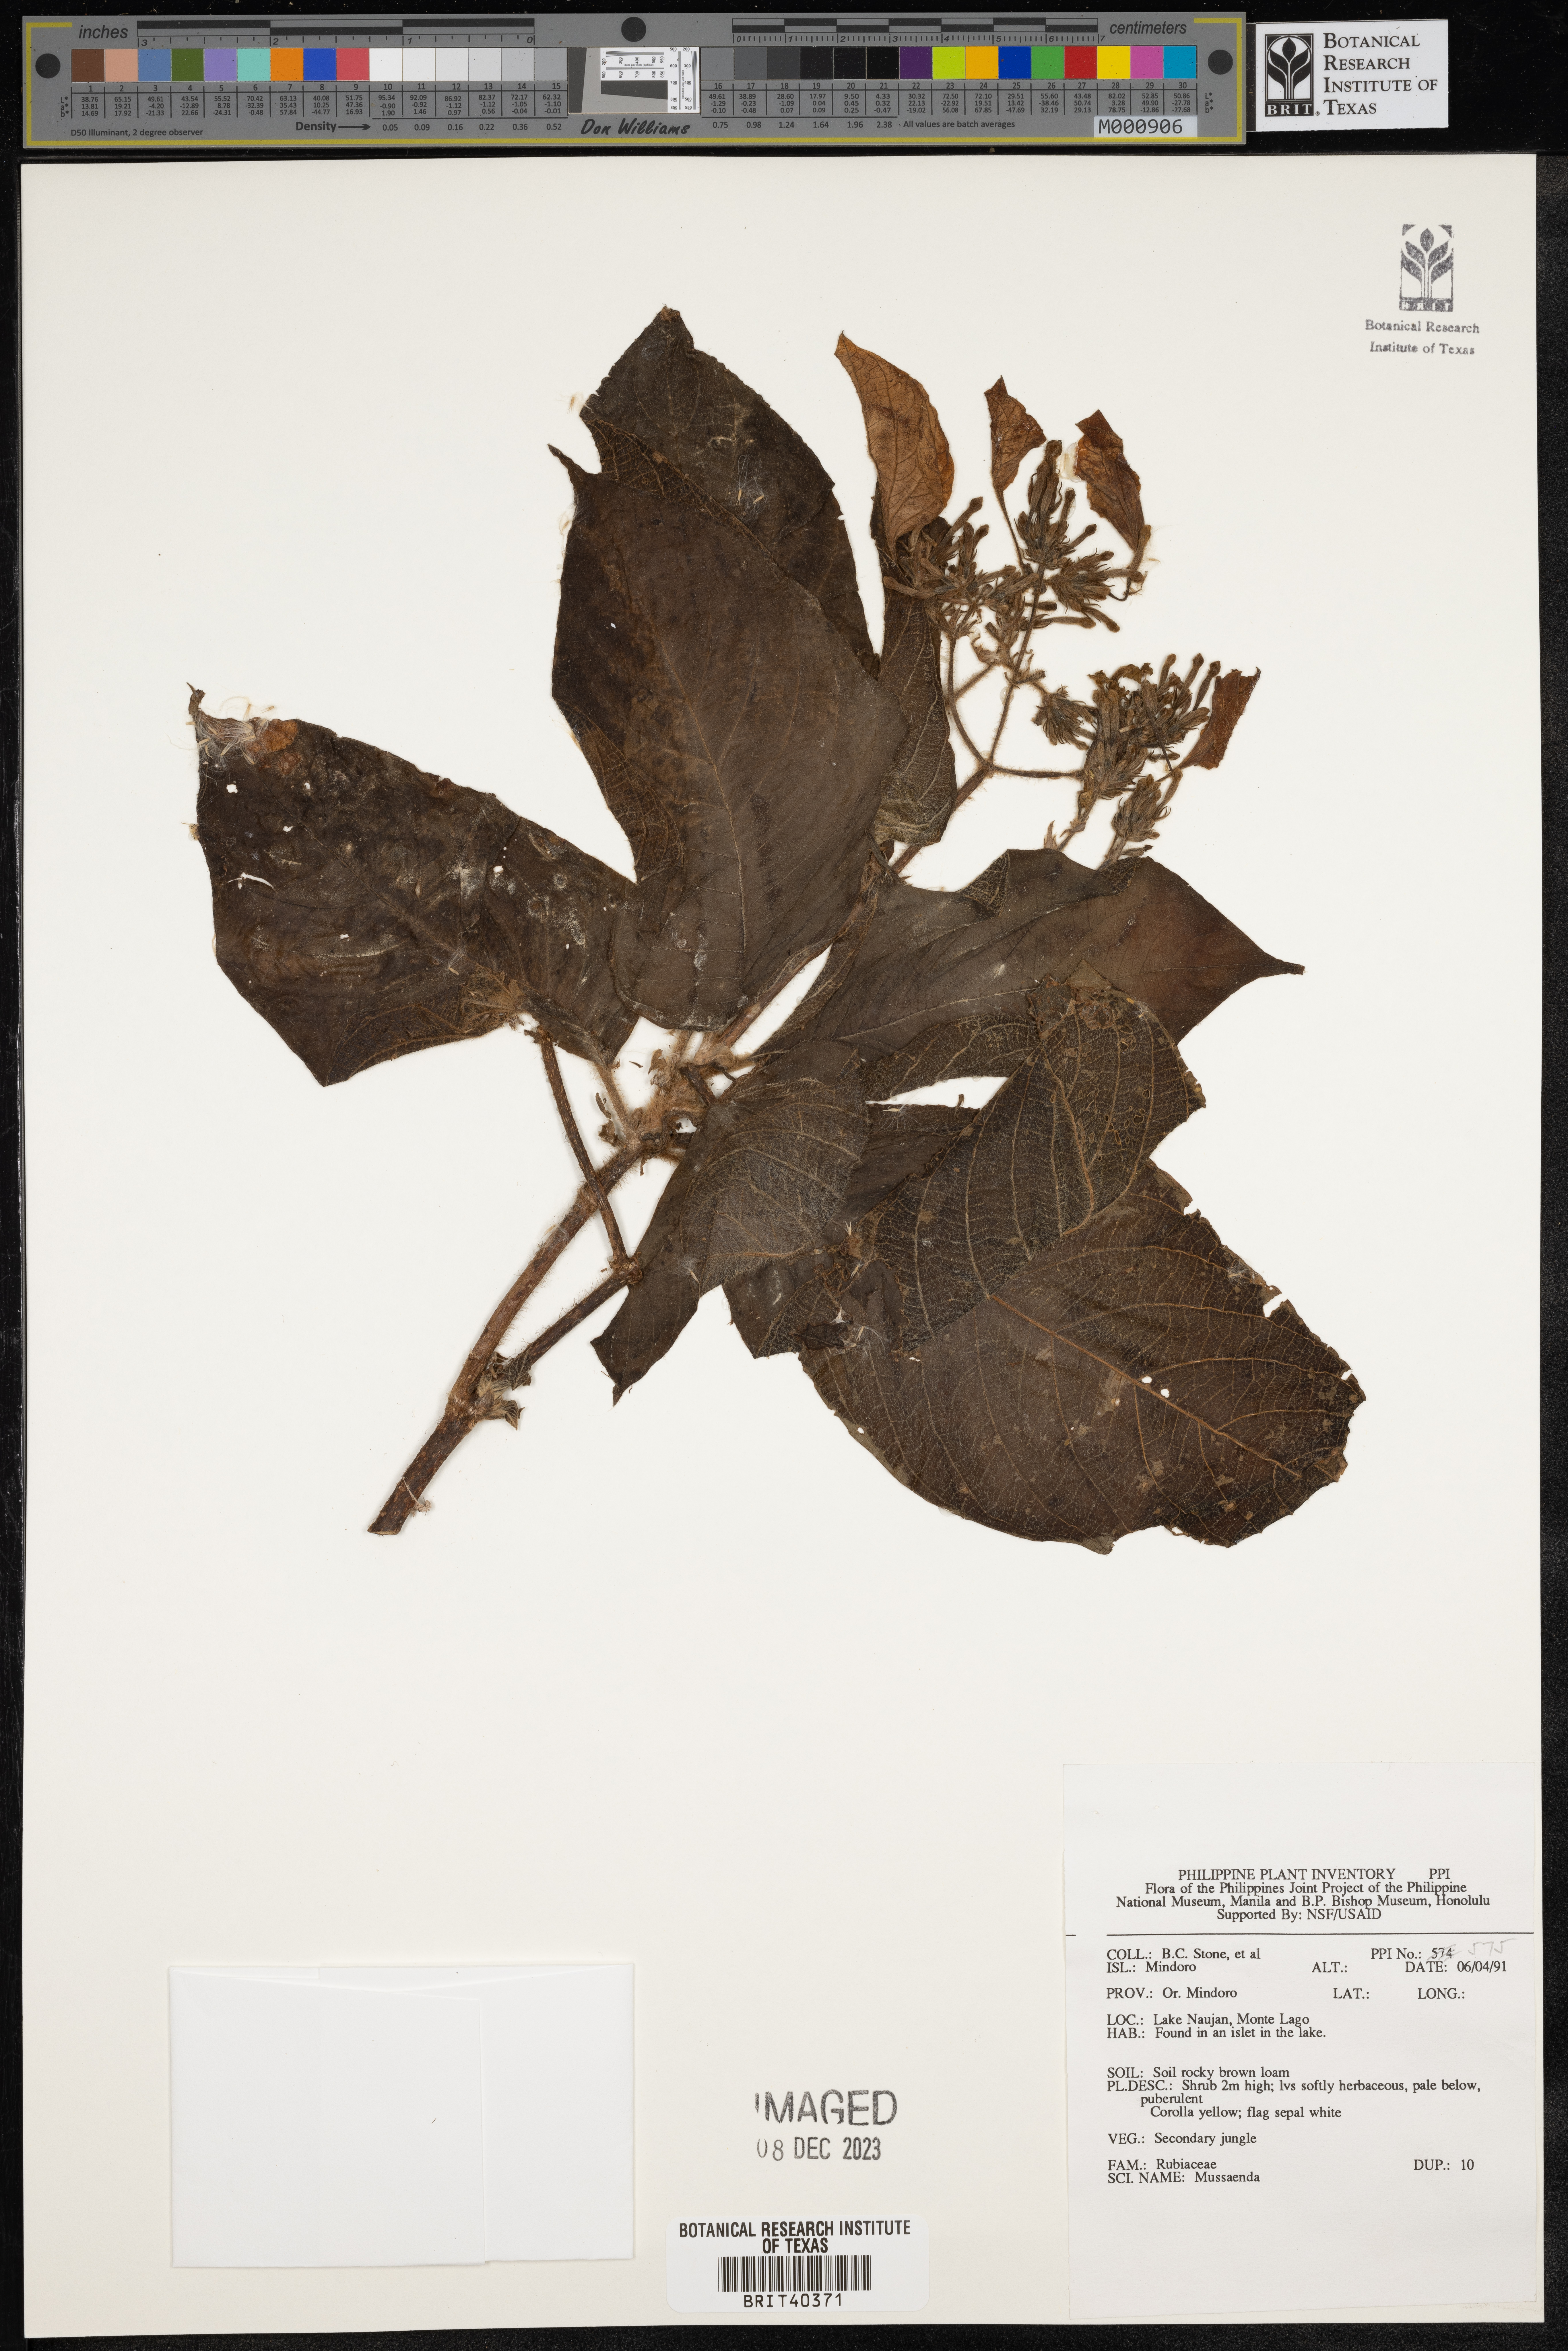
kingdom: Plantae
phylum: Tracheophyta
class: Magnoliopsida
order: Gentianales
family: Rubiaceae
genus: Mussaenda
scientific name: Mussaenda
